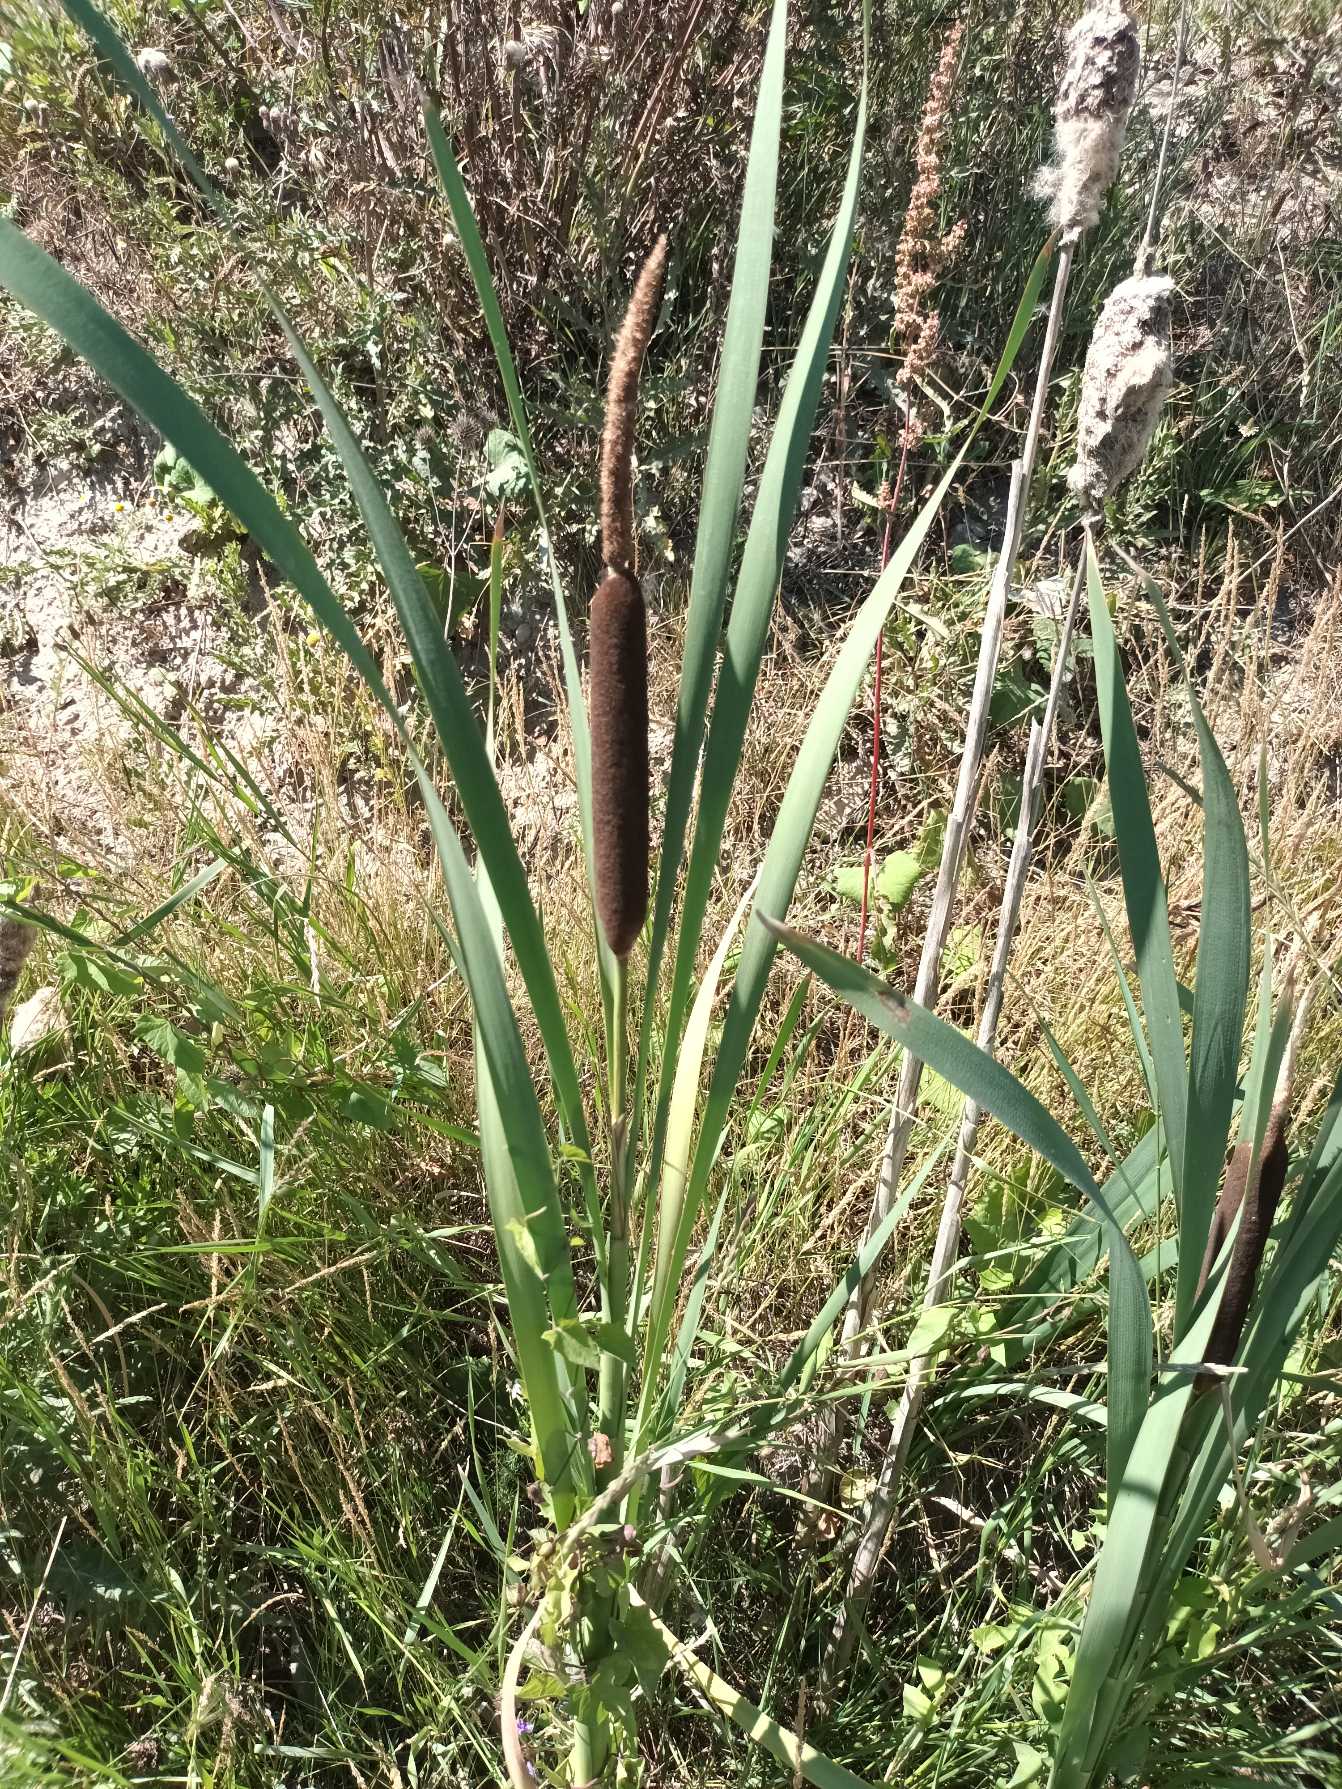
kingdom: Plantae
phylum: Tracheophyta
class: Liliopsida
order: Poales
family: Typhaceae
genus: Typha
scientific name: Typha latifolia
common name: Bredbladet dunhammer
